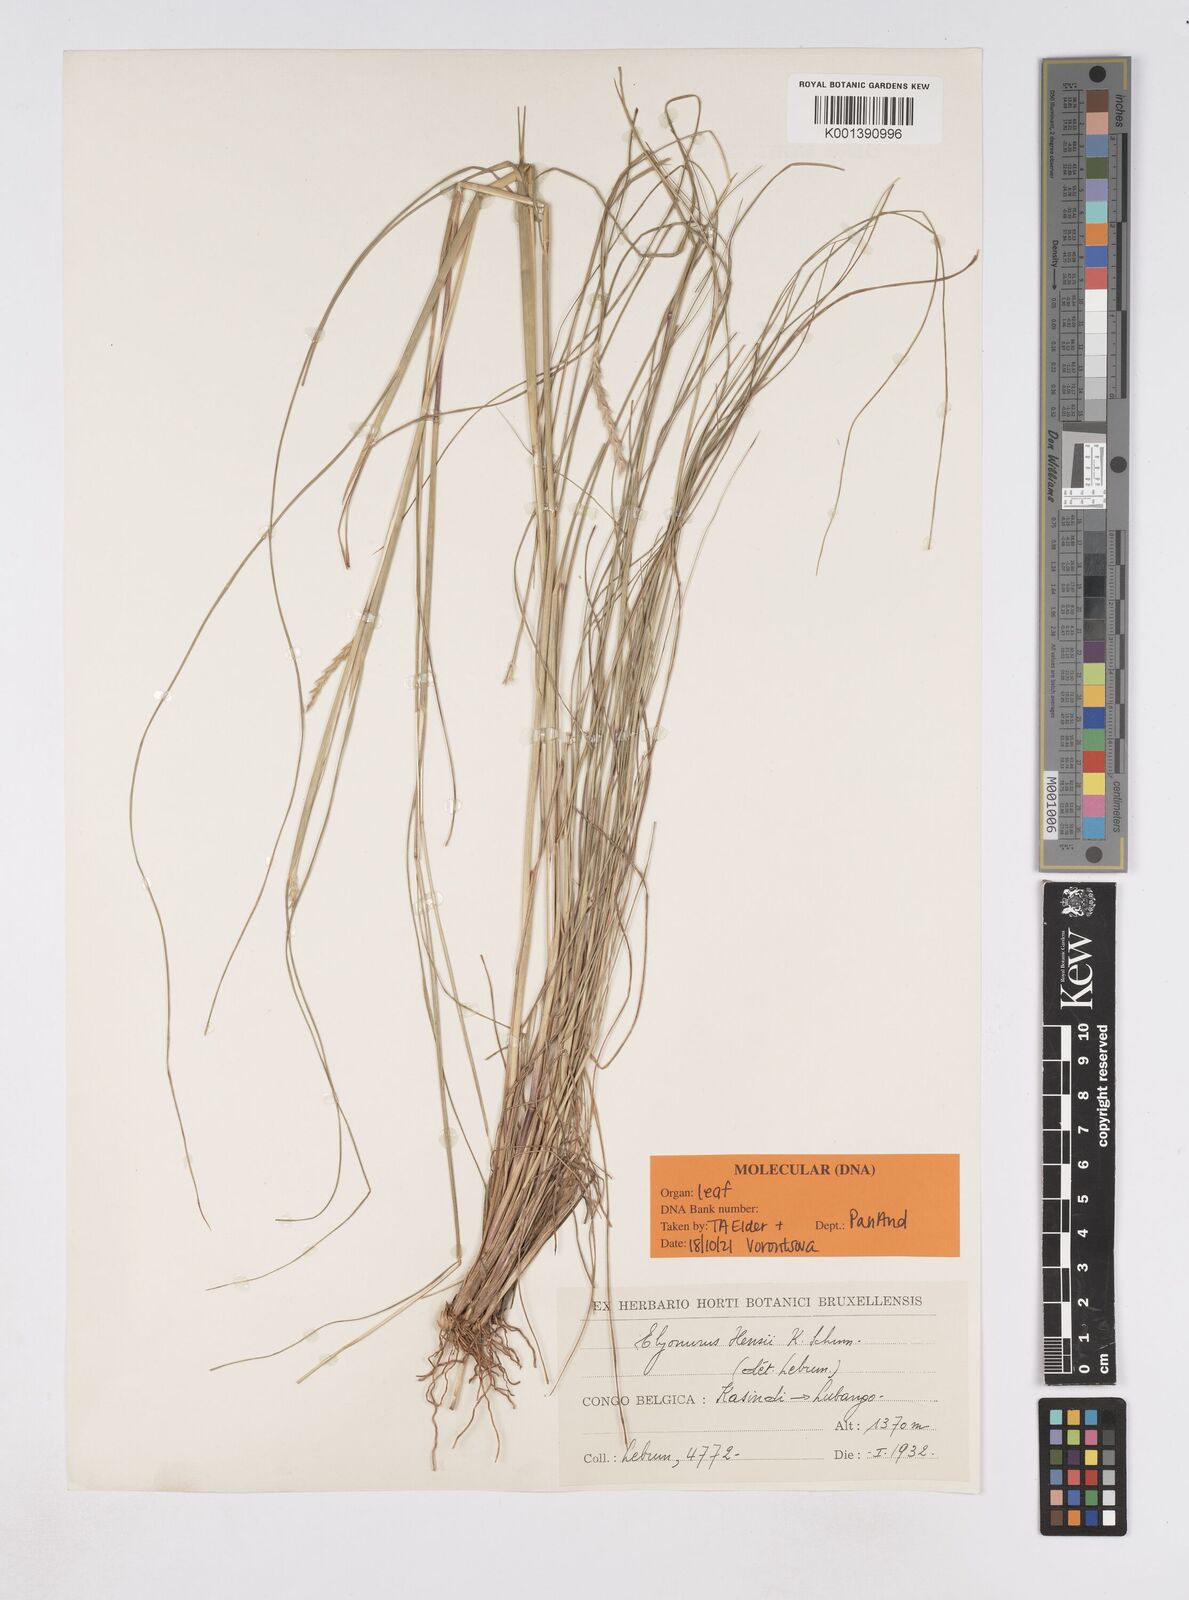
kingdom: Plantae
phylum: Tracheophyta
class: Liliopsida
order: Poales
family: Poaceae
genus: Elionurus
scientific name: Elionurus hensii
